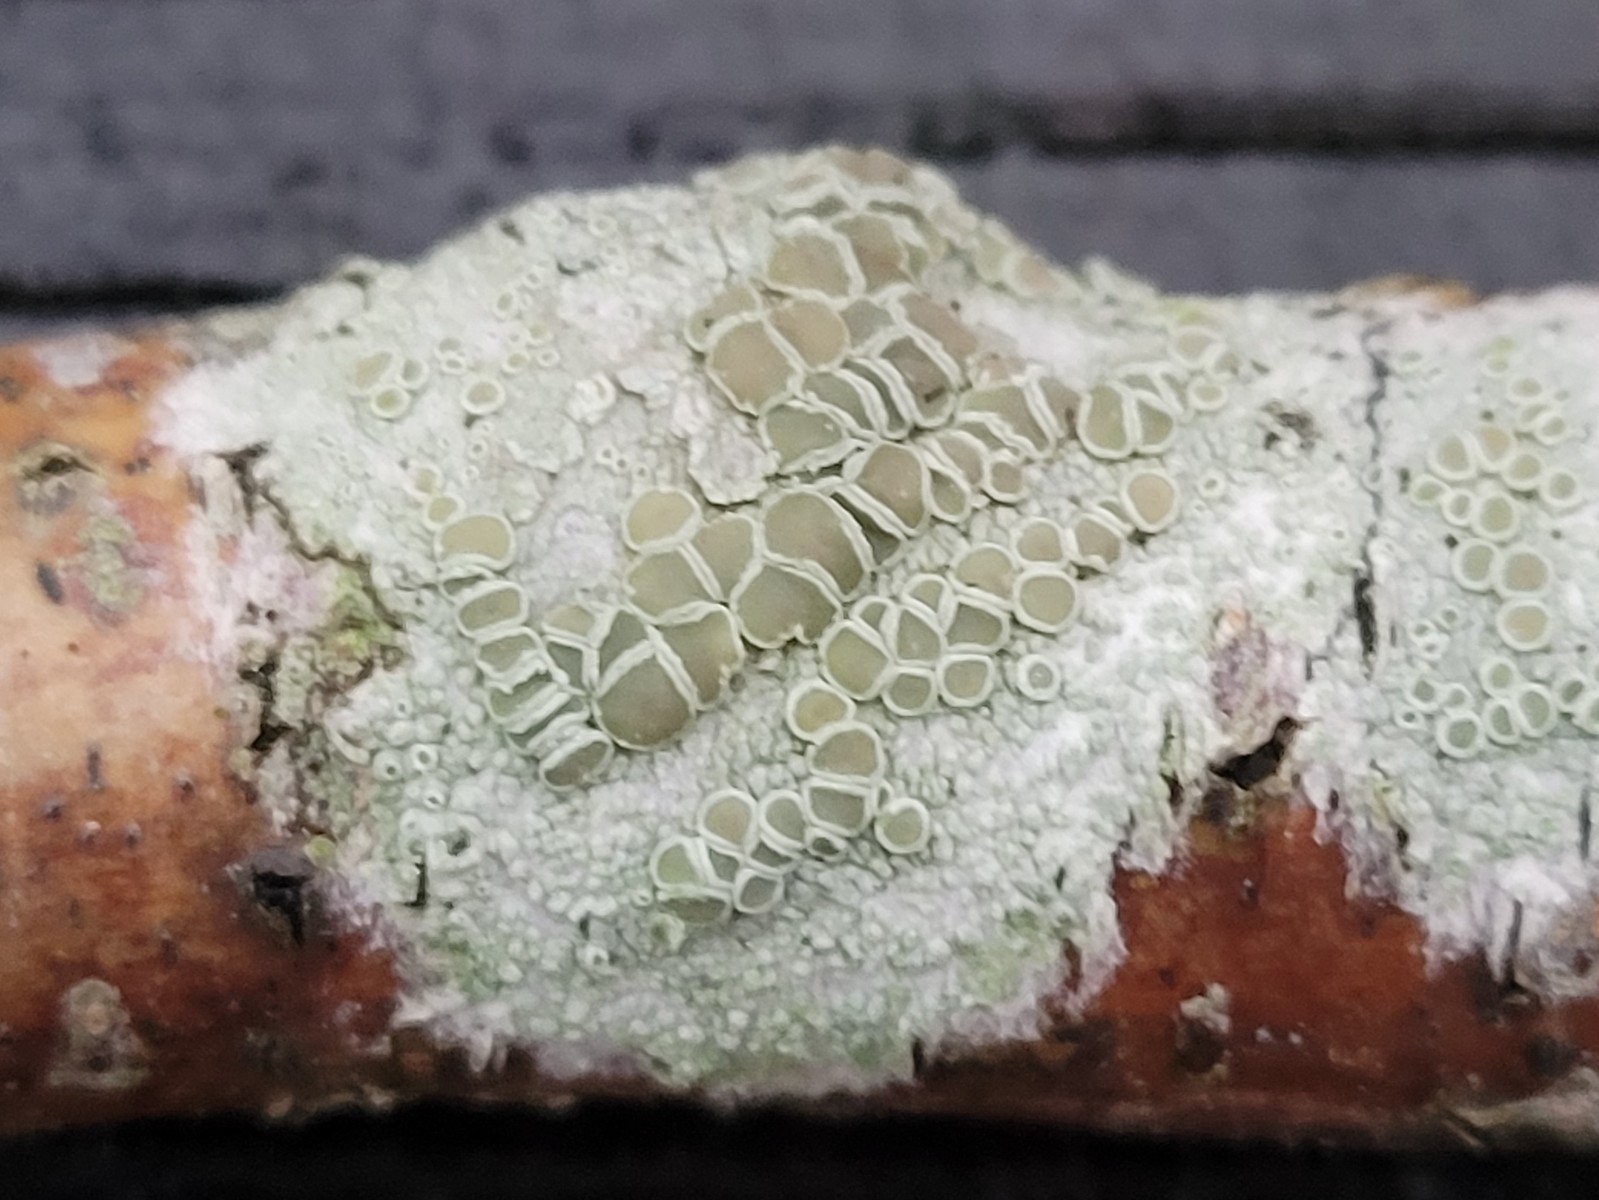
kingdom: Fungi
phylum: Ascomycota
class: Lecanoromycetes
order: Lecanorales
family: Lecanoraceae
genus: Lecanora
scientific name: Lecanora chlarotera
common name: brun kantskivelav
